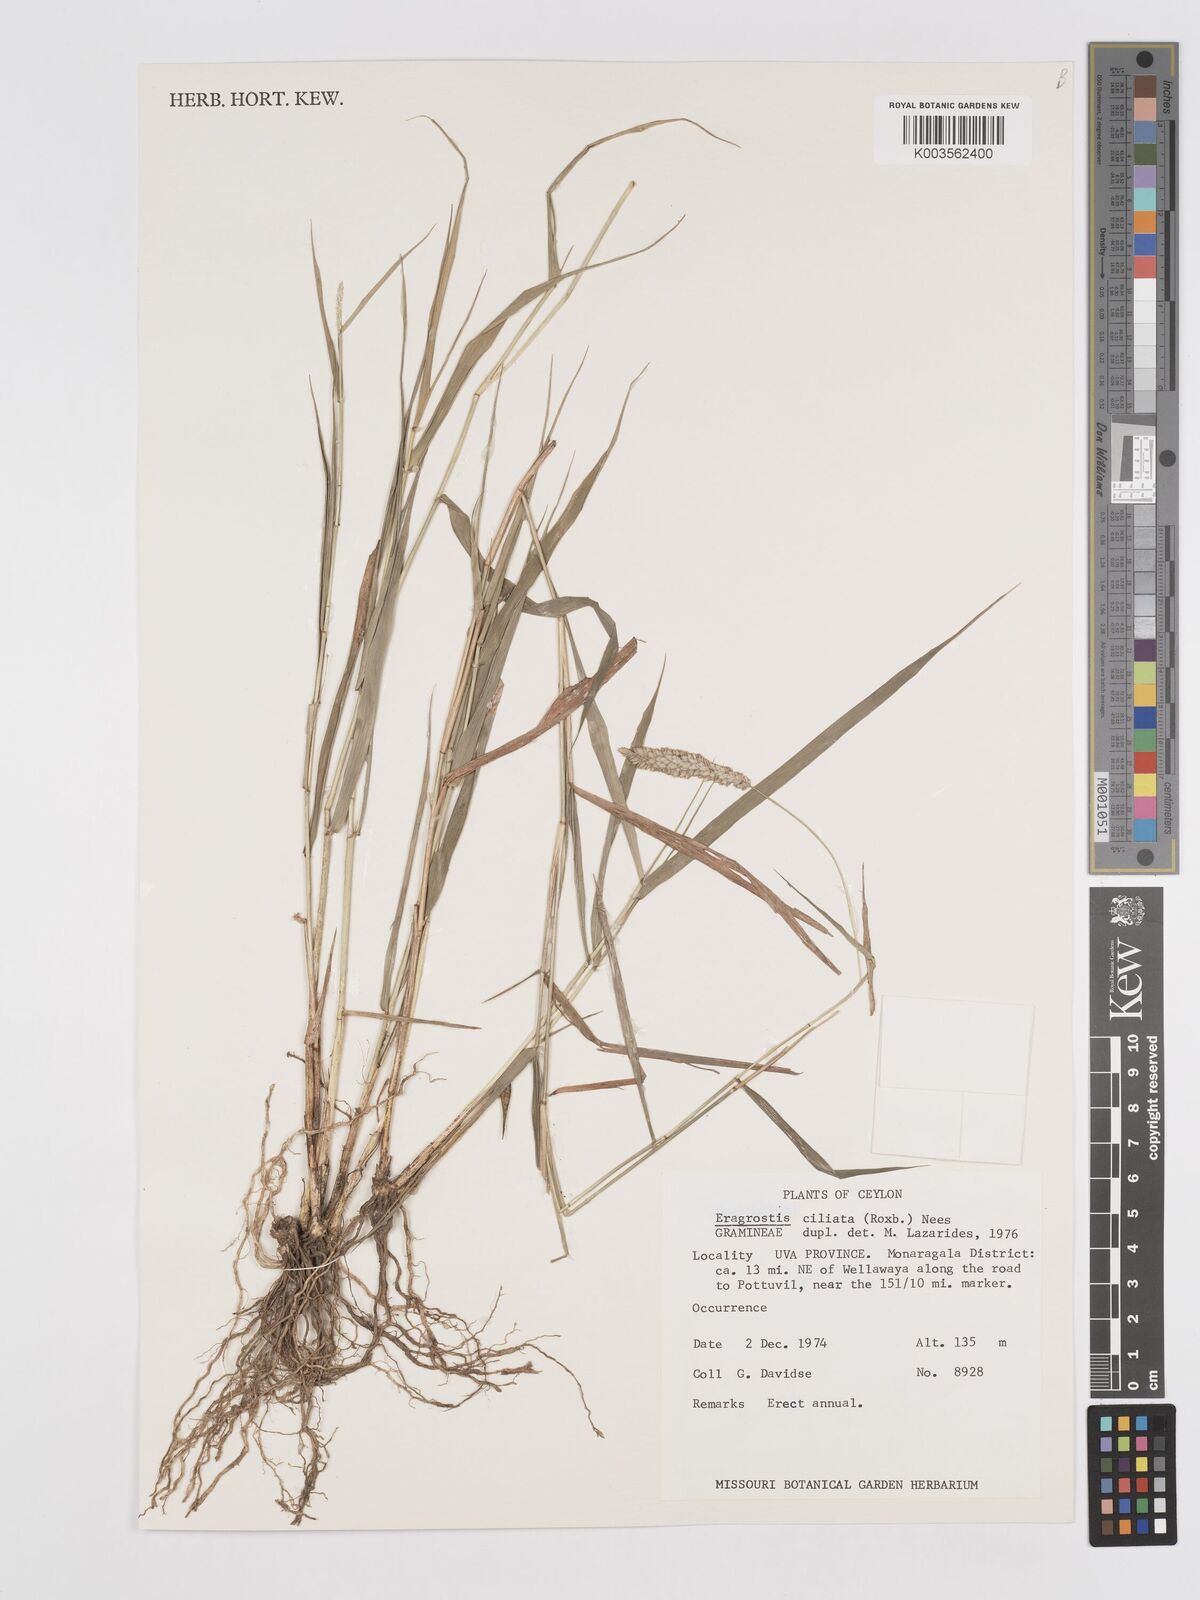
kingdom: Plantae
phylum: Tracheophyta
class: Liliopsida
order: Poales
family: Poaceae
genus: Eragrostis
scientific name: Eragrostis ciliata
